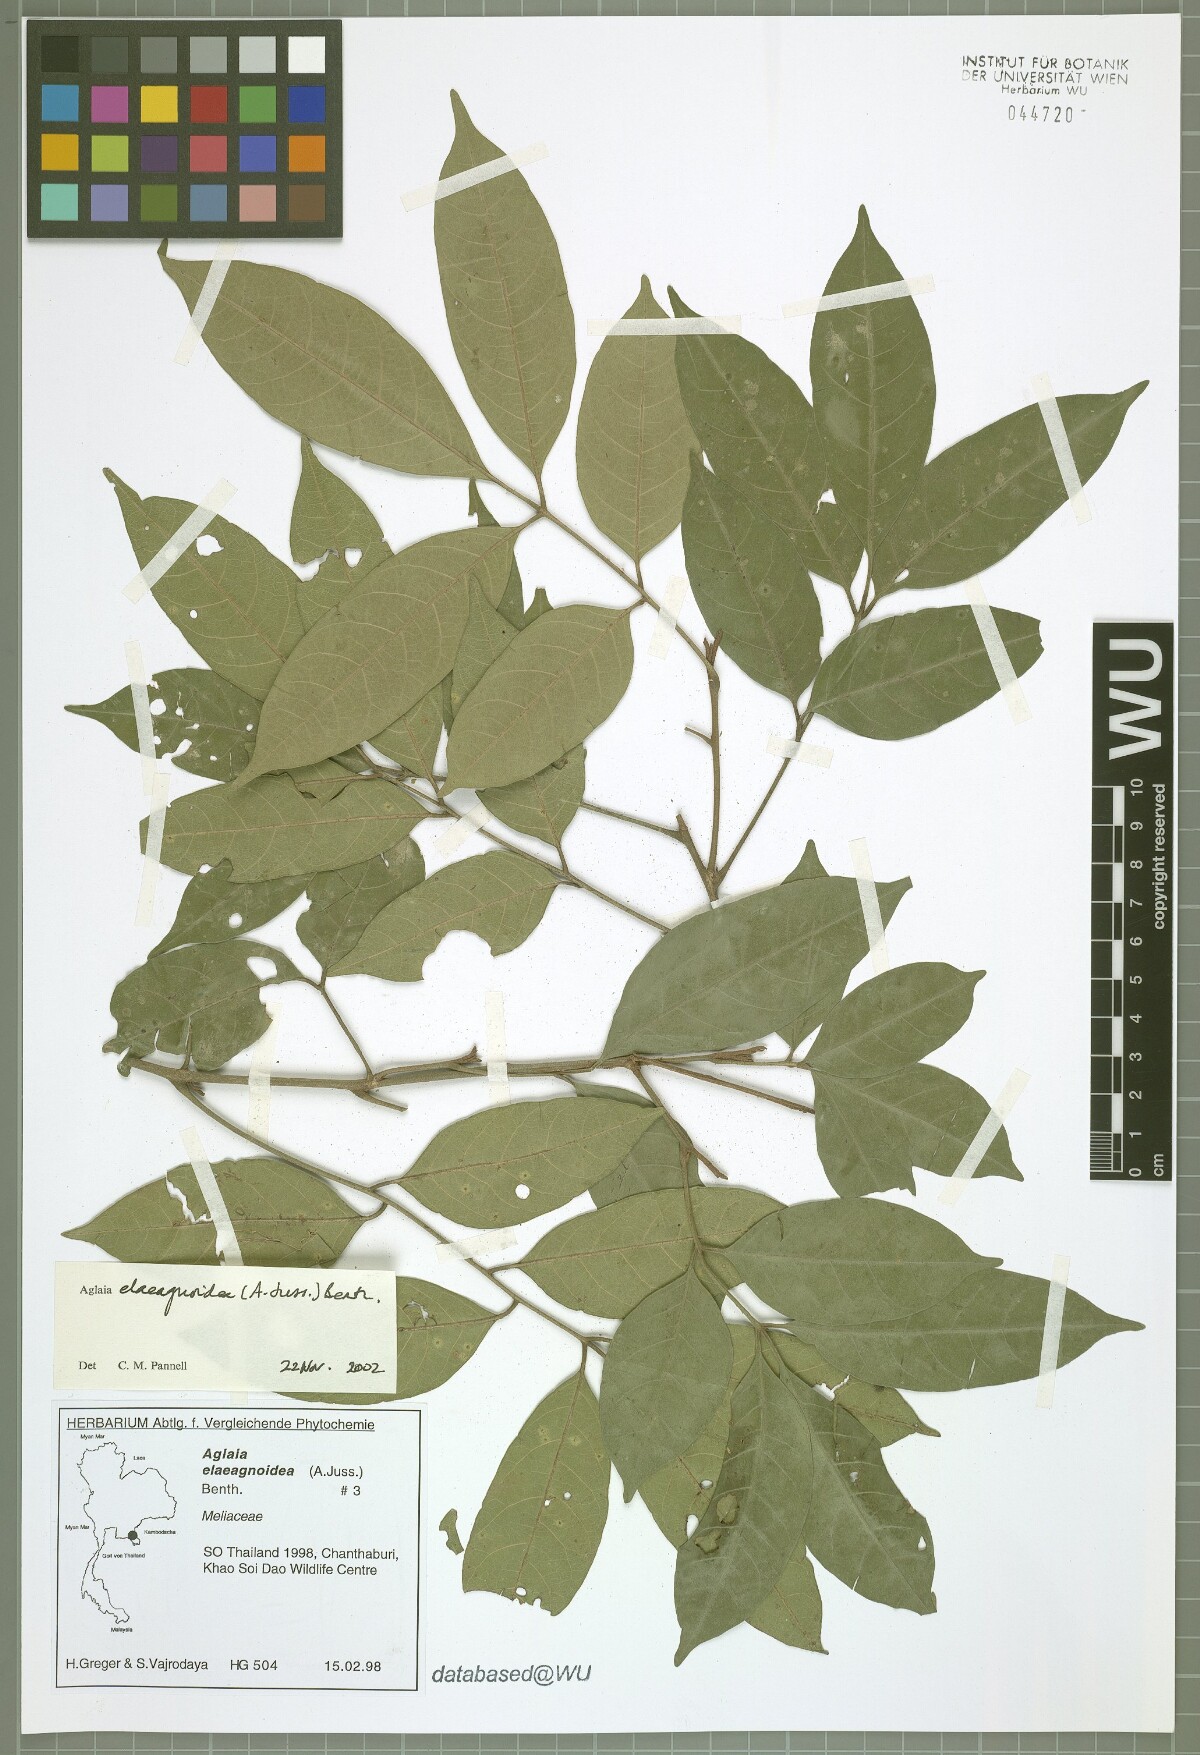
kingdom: Plantae
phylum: Tracheophyta
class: Magnoliopsida
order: Sapindales
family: Meliaceae
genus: Aglaia
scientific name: Aglaia elaeagnoidea
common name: Droopyleaf
